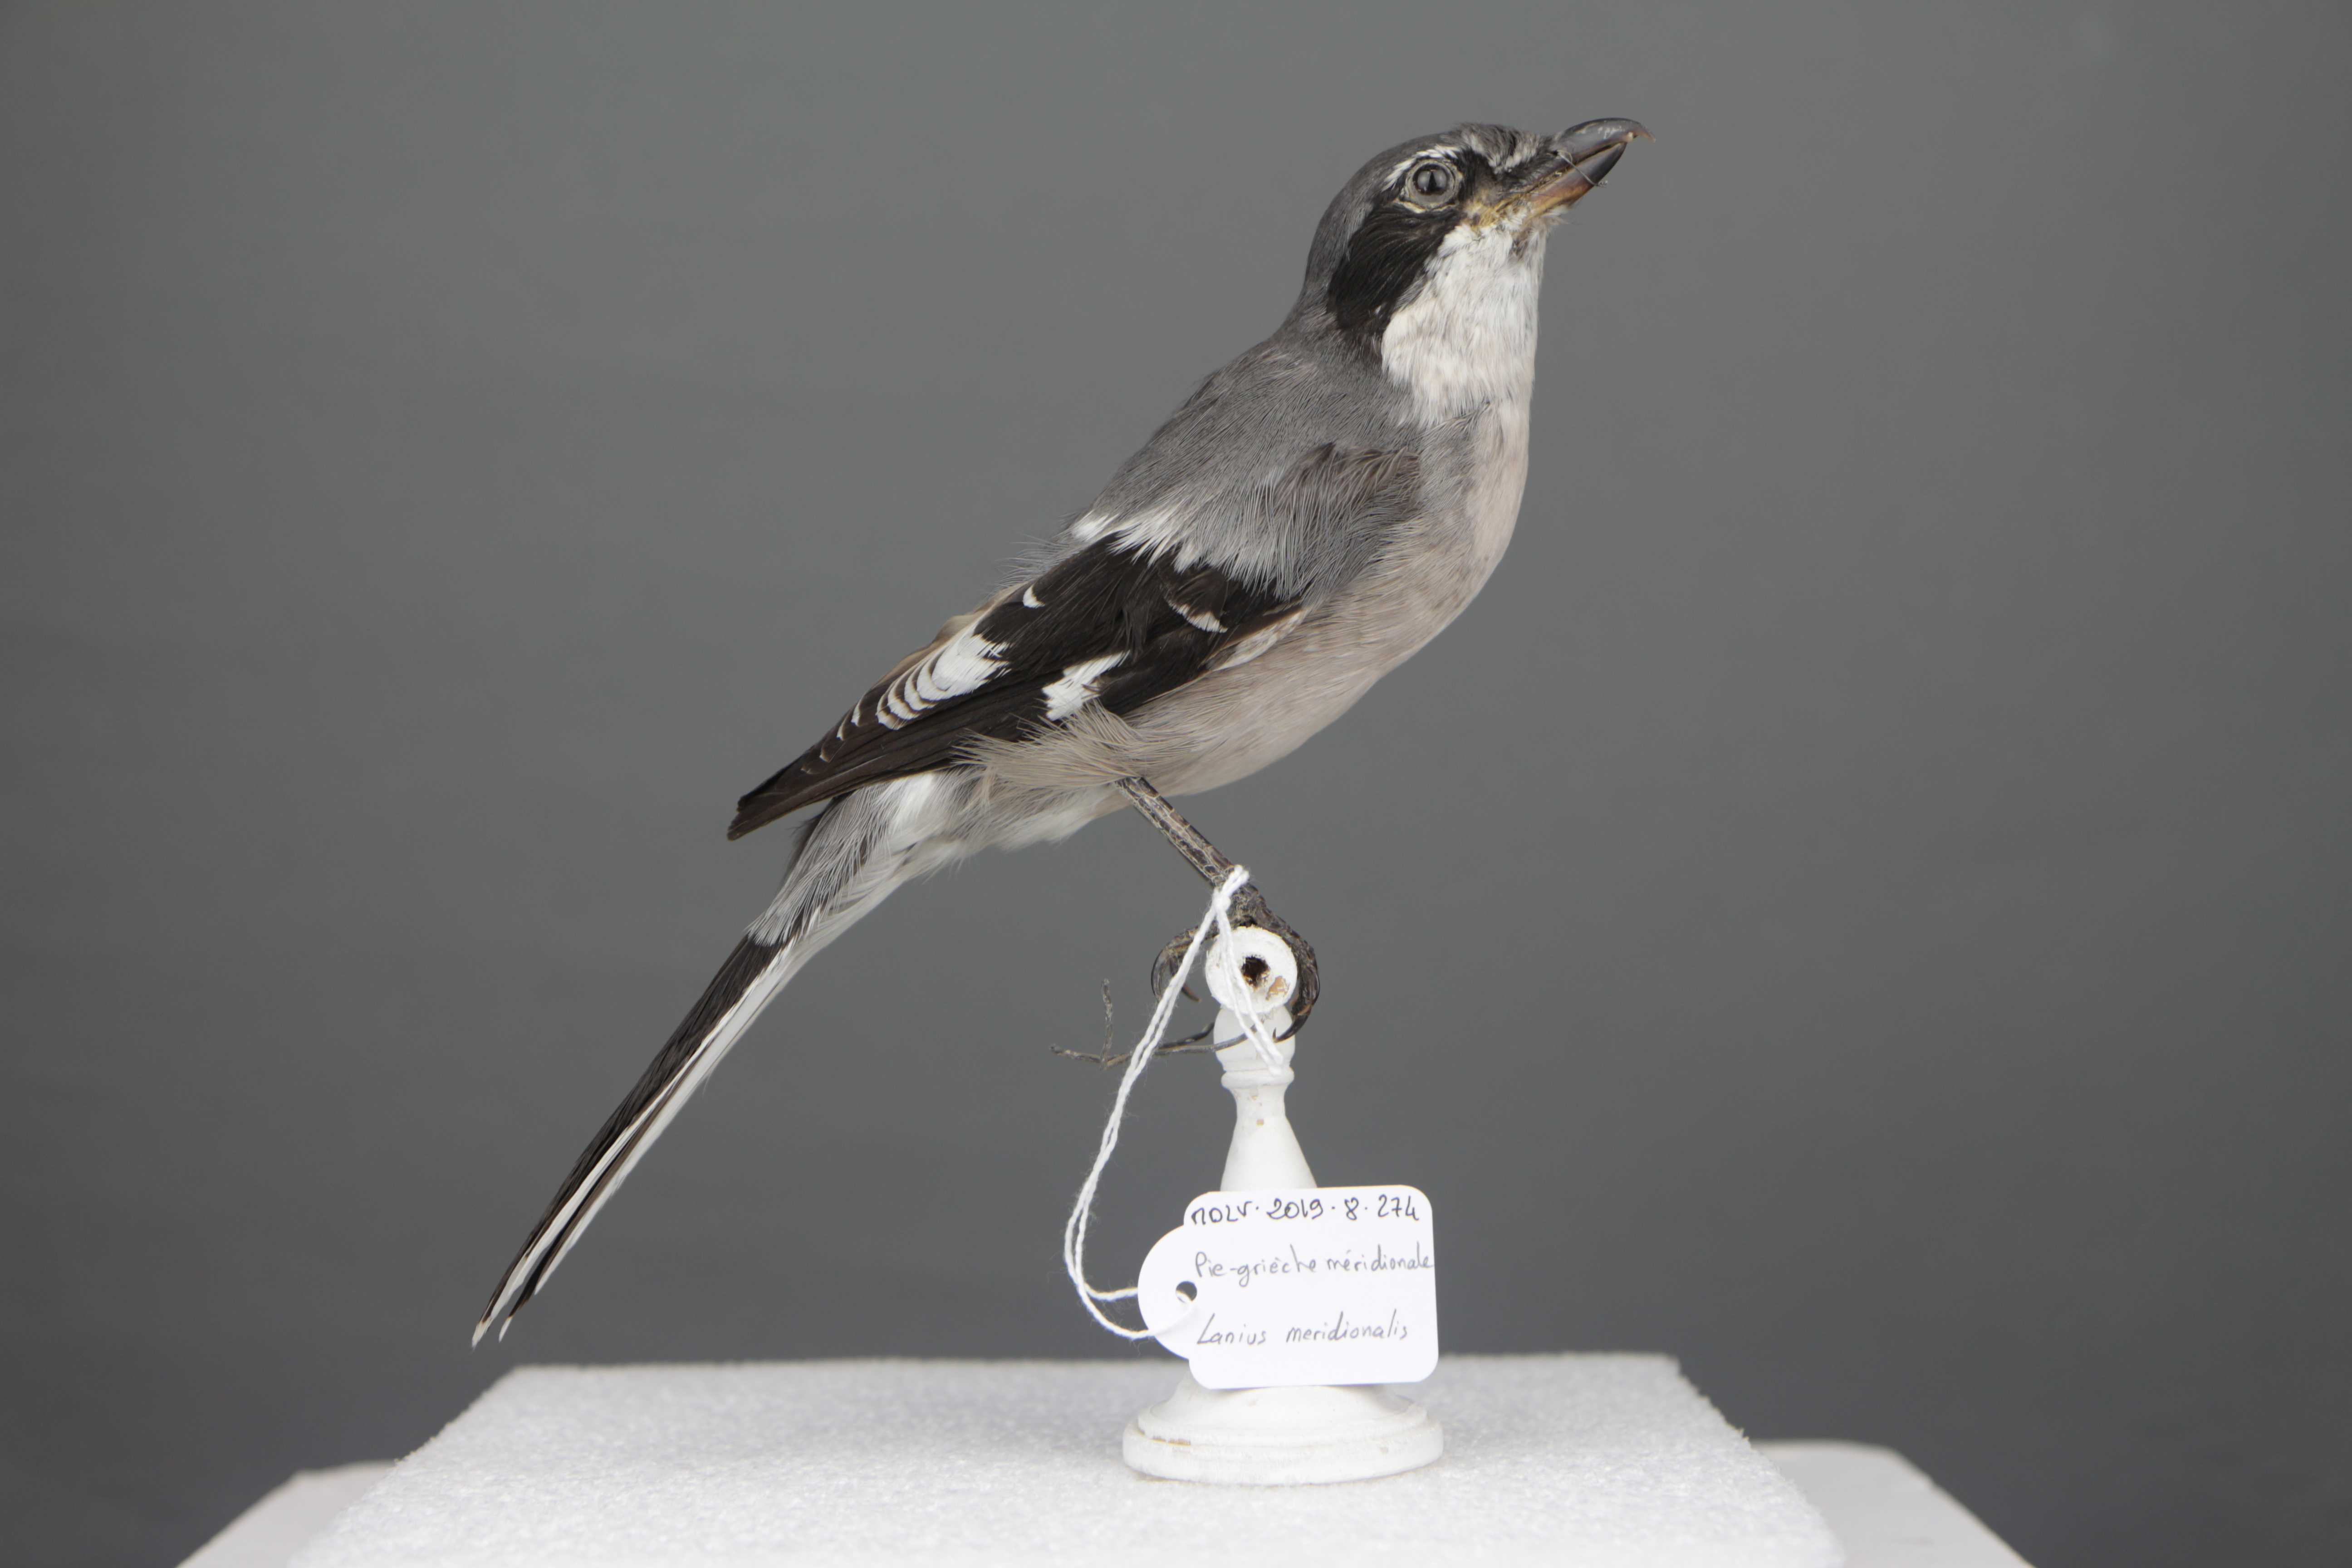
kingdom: Animalia
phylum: Chordata
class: Aves
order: Passeriformes
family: Laniidae
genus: Lanius
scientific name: Lanius meridionalis
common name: Iberian grey shrike
